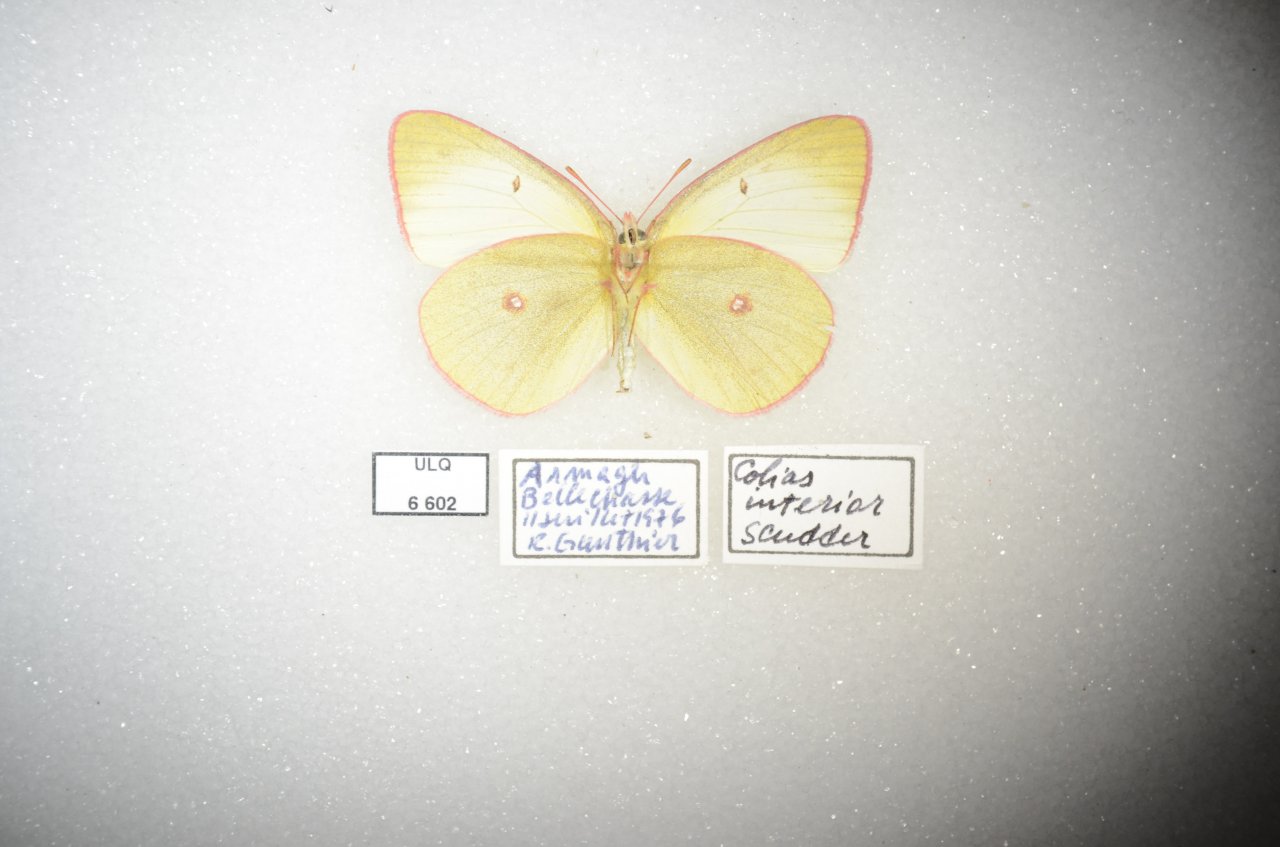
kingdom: Animalia
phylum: Arthropoda
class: Insecta
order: Lepidoptera
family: Pieridae
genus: Colias
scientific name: Colias interior
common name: Pink-edged Sulphur
